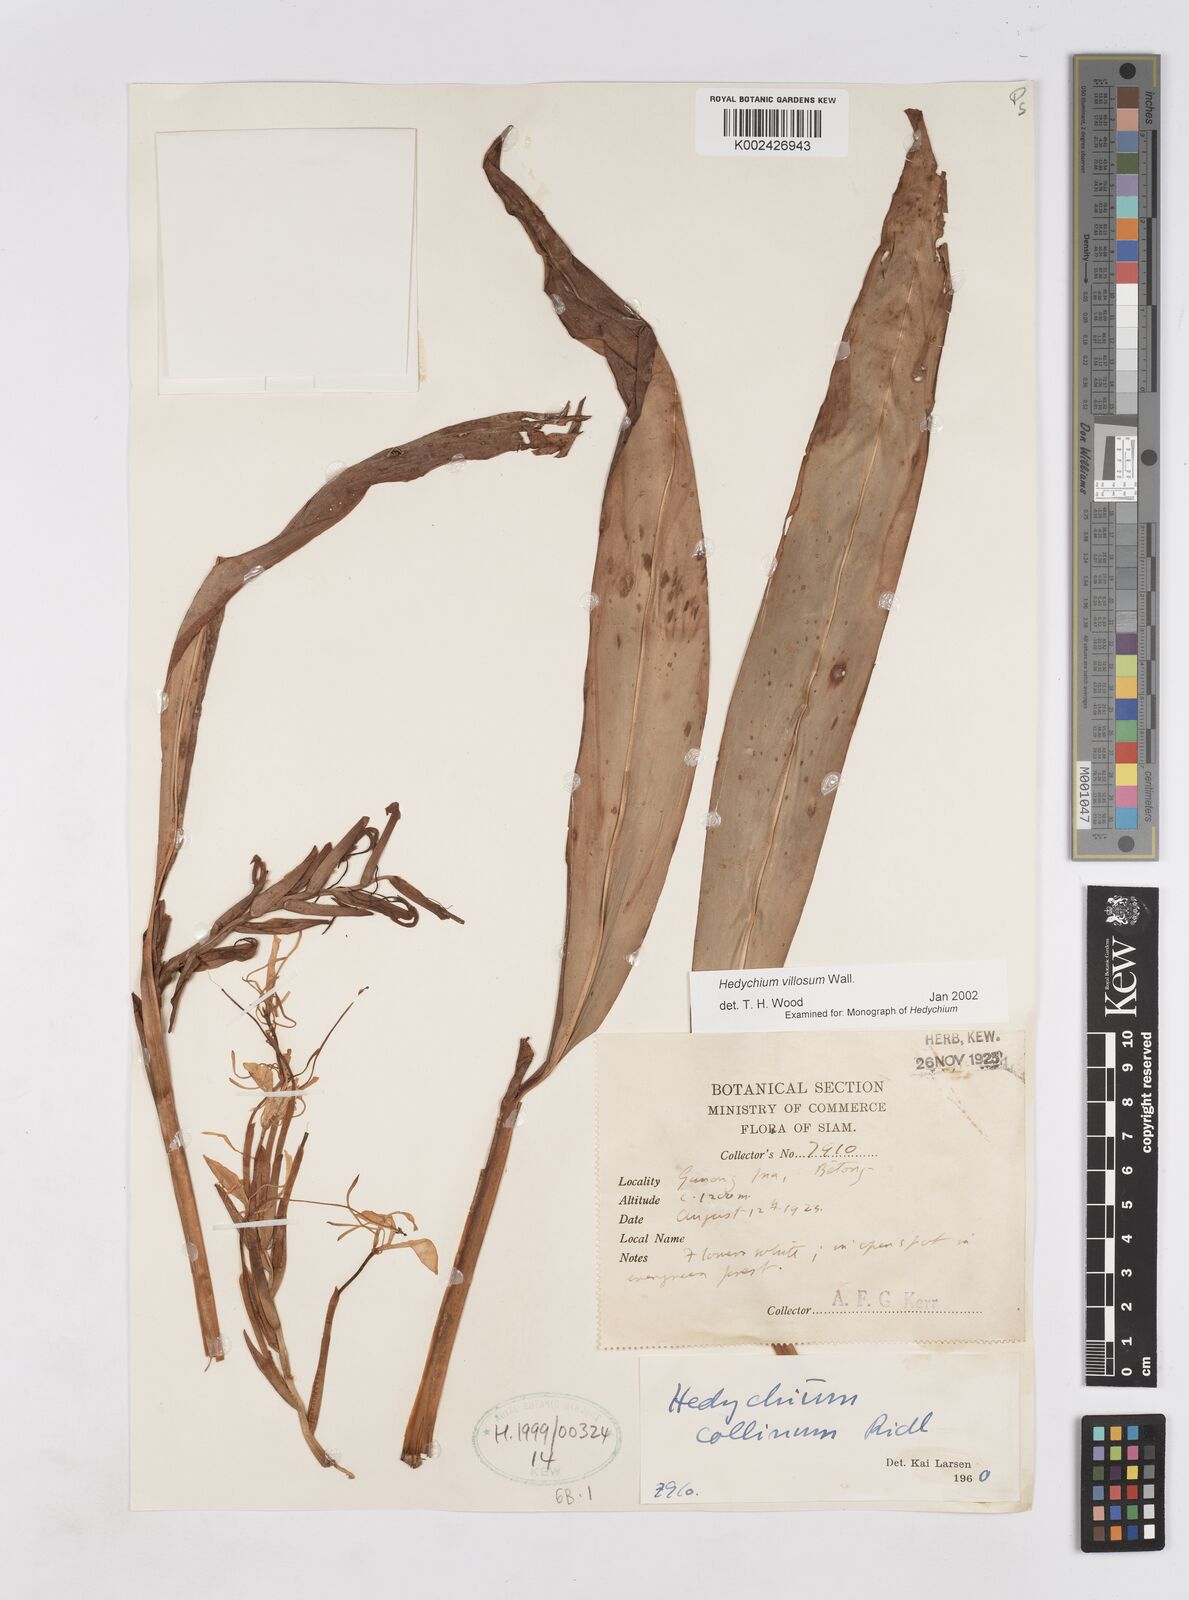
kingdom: Plantae
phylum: Tracheophyta
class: Liliopsida
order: Zingiberales
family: Zingiberaceae
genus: Hedychium
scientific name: Hedychium villosum
